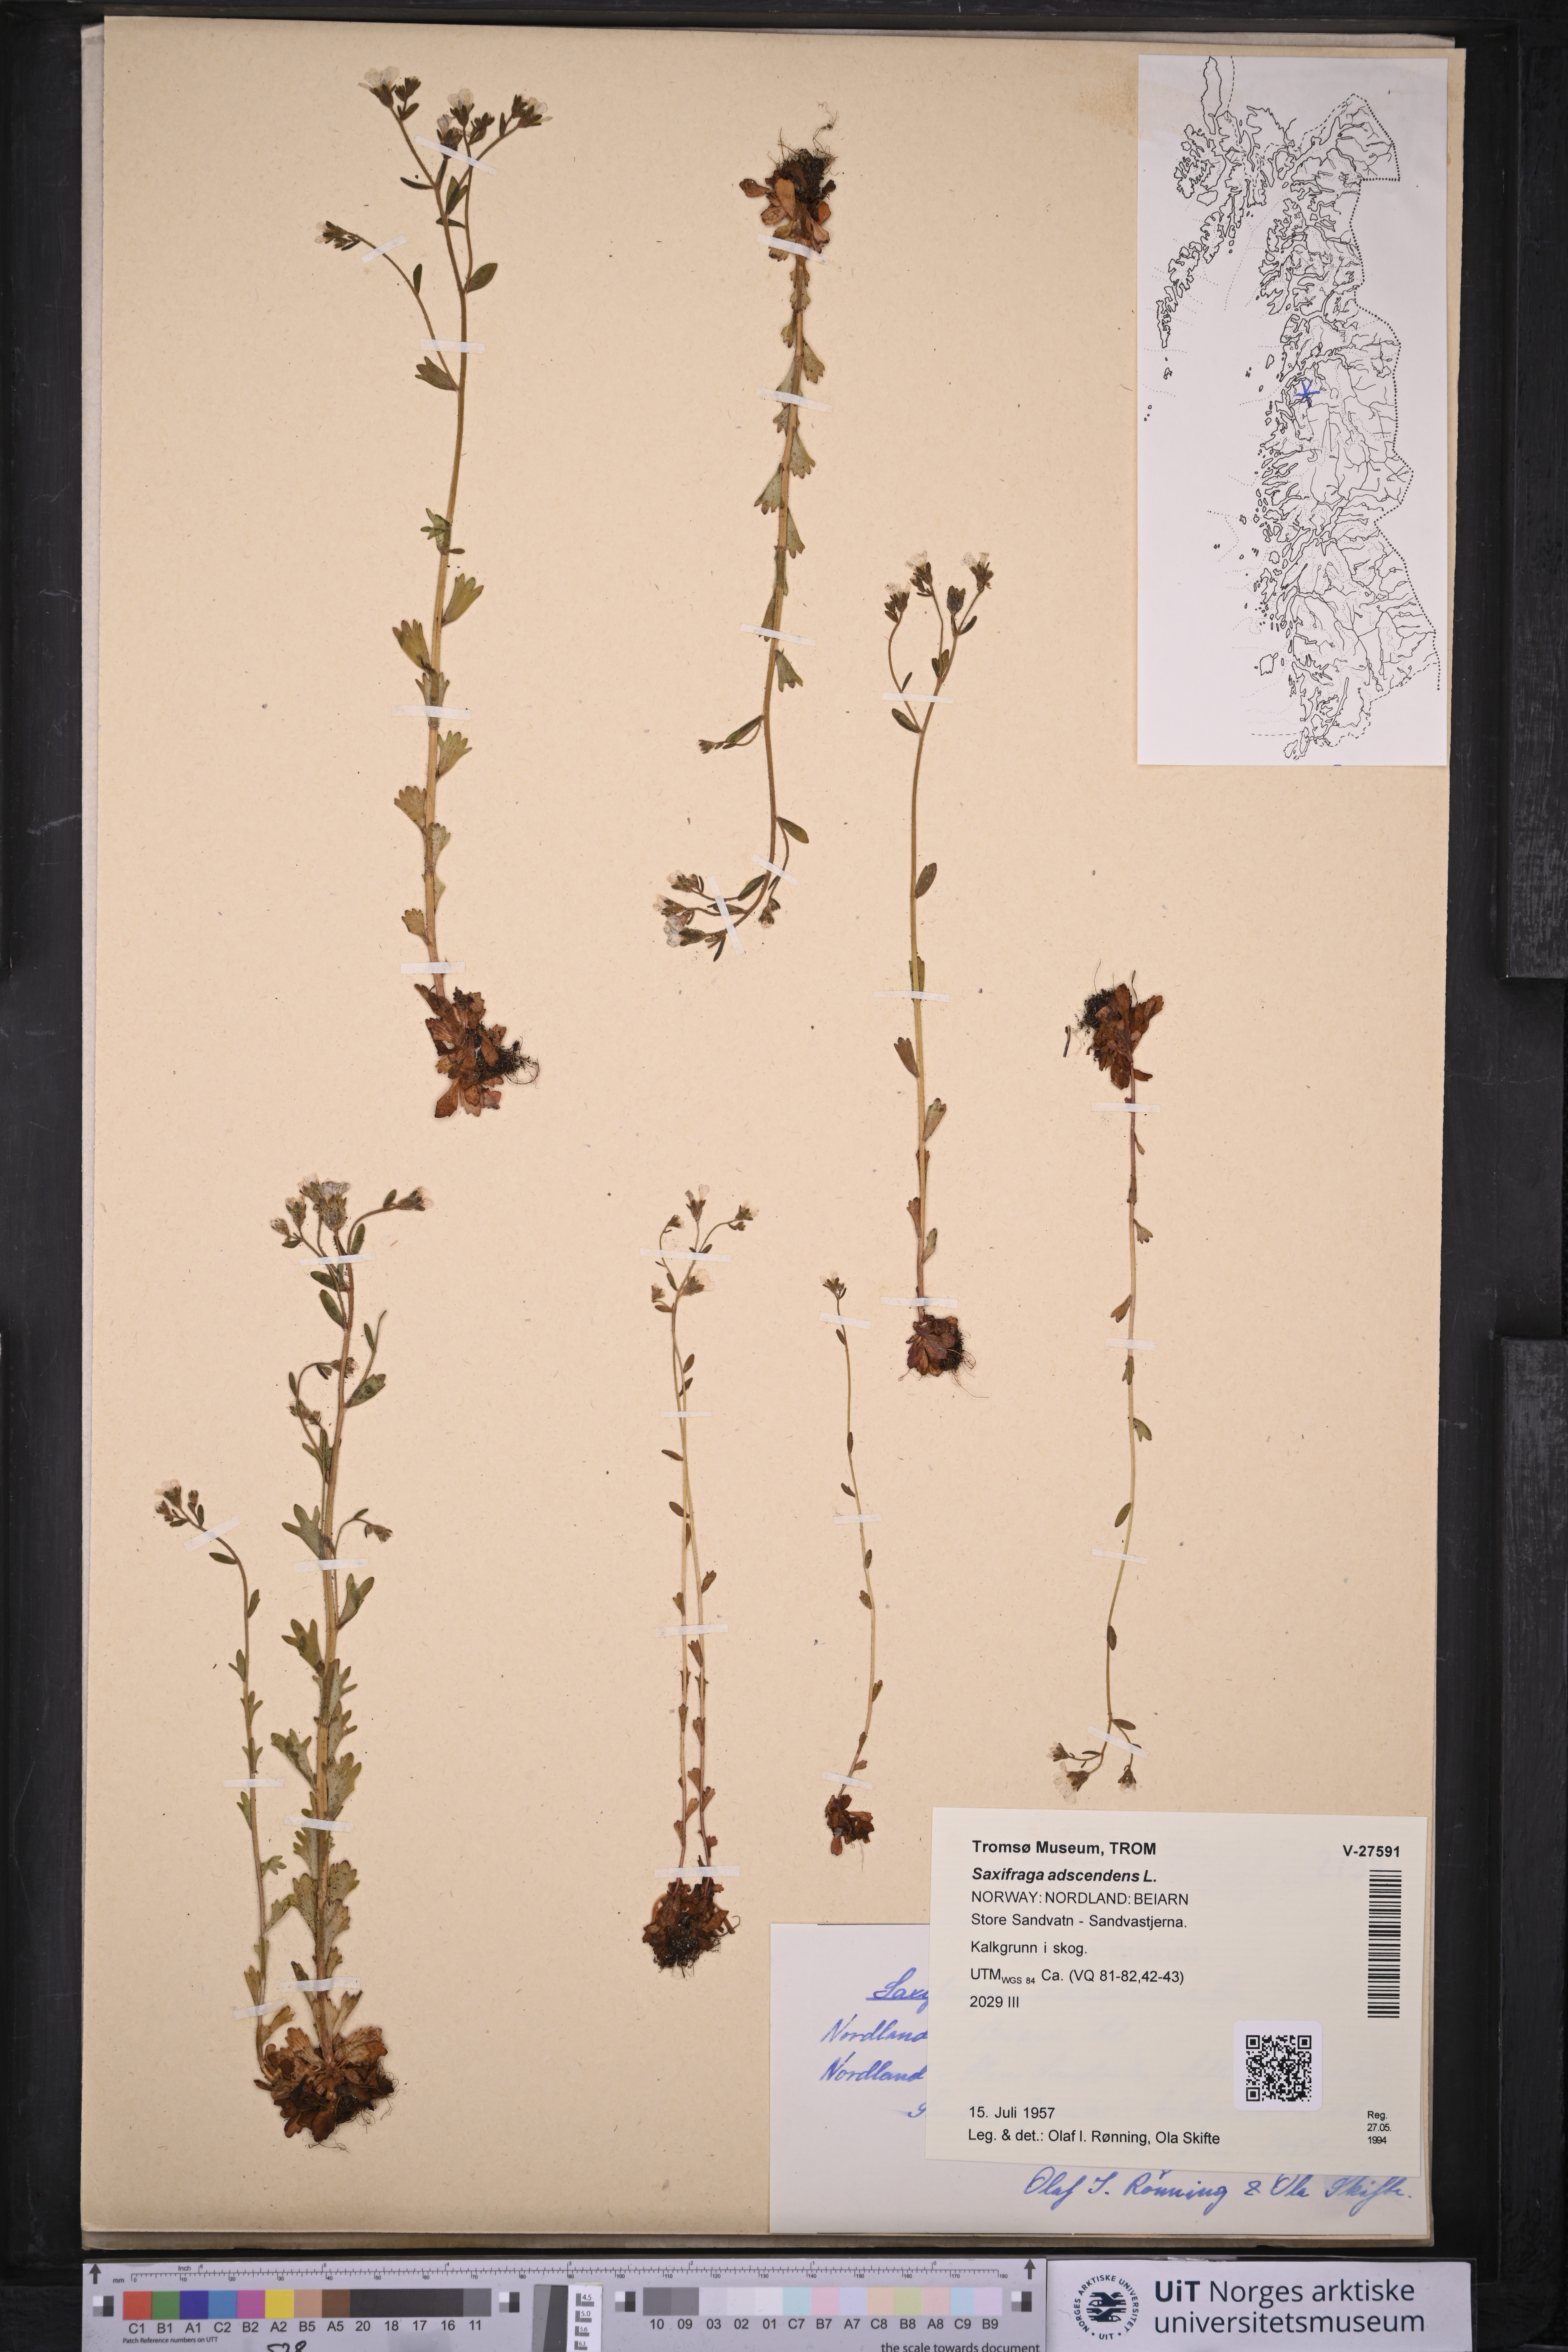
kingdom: Plantae
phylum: Tracheophyta
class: Magnoliopsida
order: Saxifragales
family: Saxifragaceae
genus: Saxifraga
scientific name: Saxifraga adscendens
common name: Ascending saxifrage
